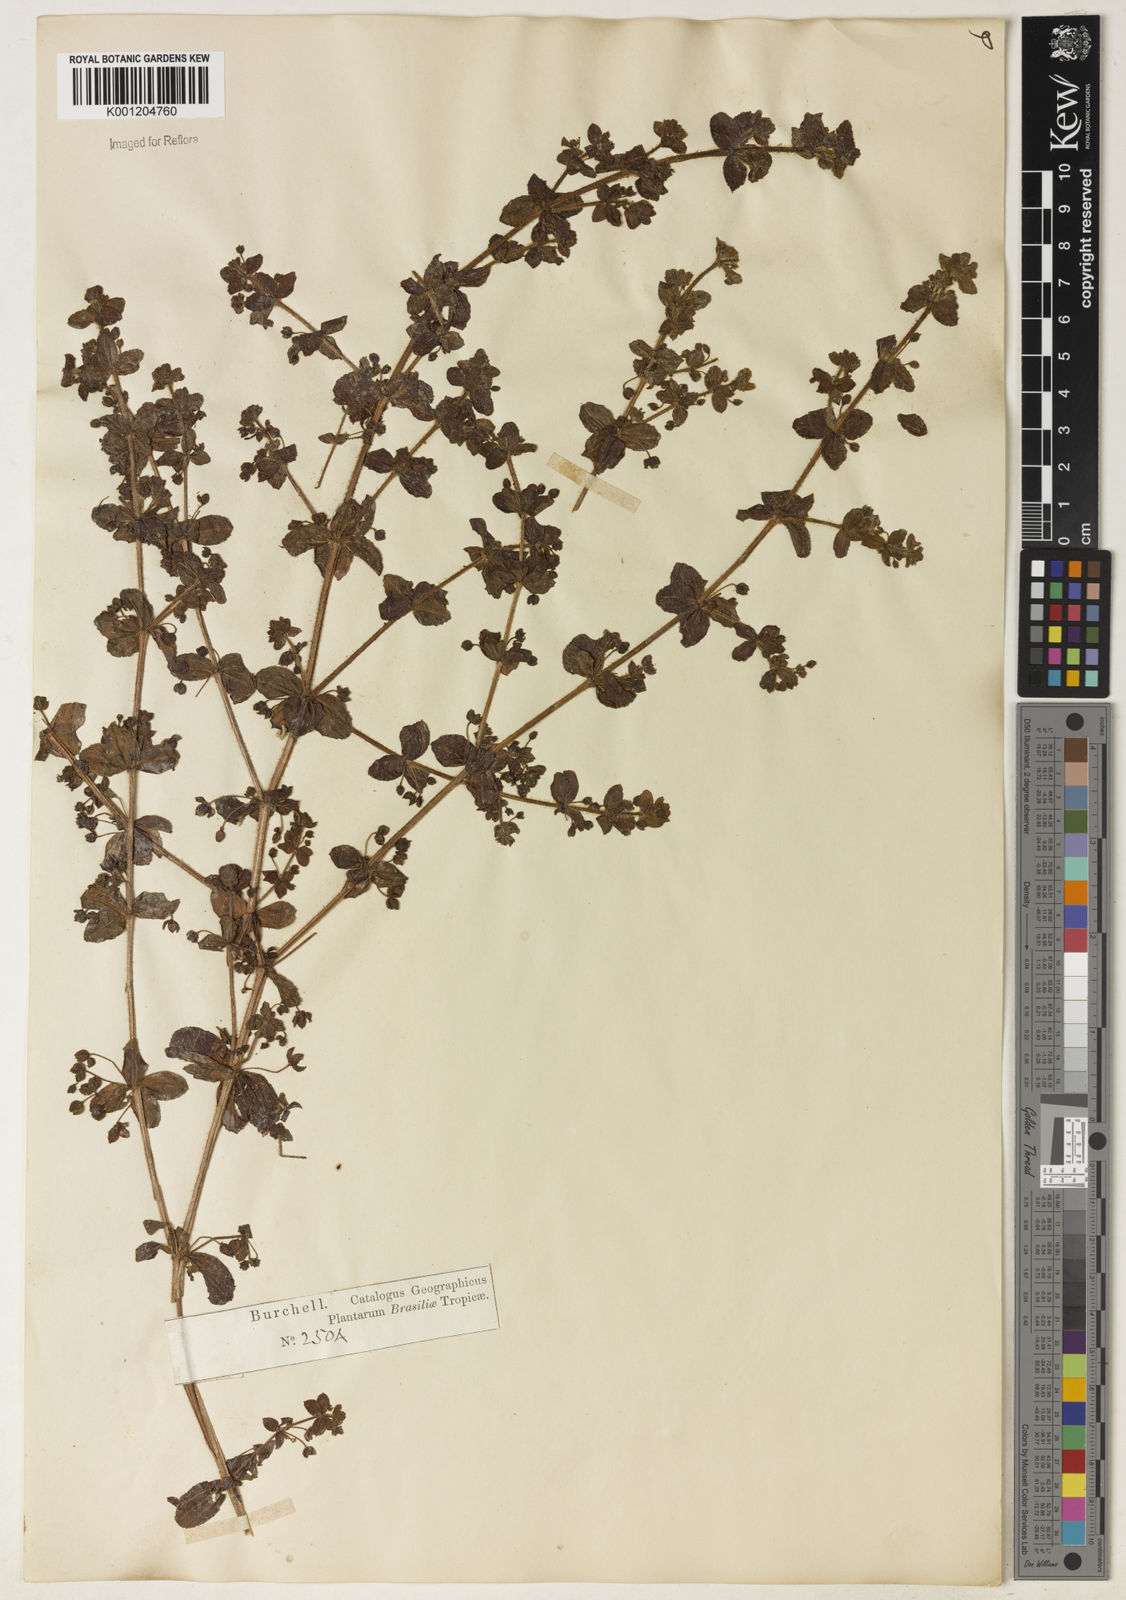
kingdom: Plantae
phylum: Tracheophyta
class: Magnoliopsida
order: Gentianales
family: Rubiaceae
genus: Galium
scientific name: Galium noxium
